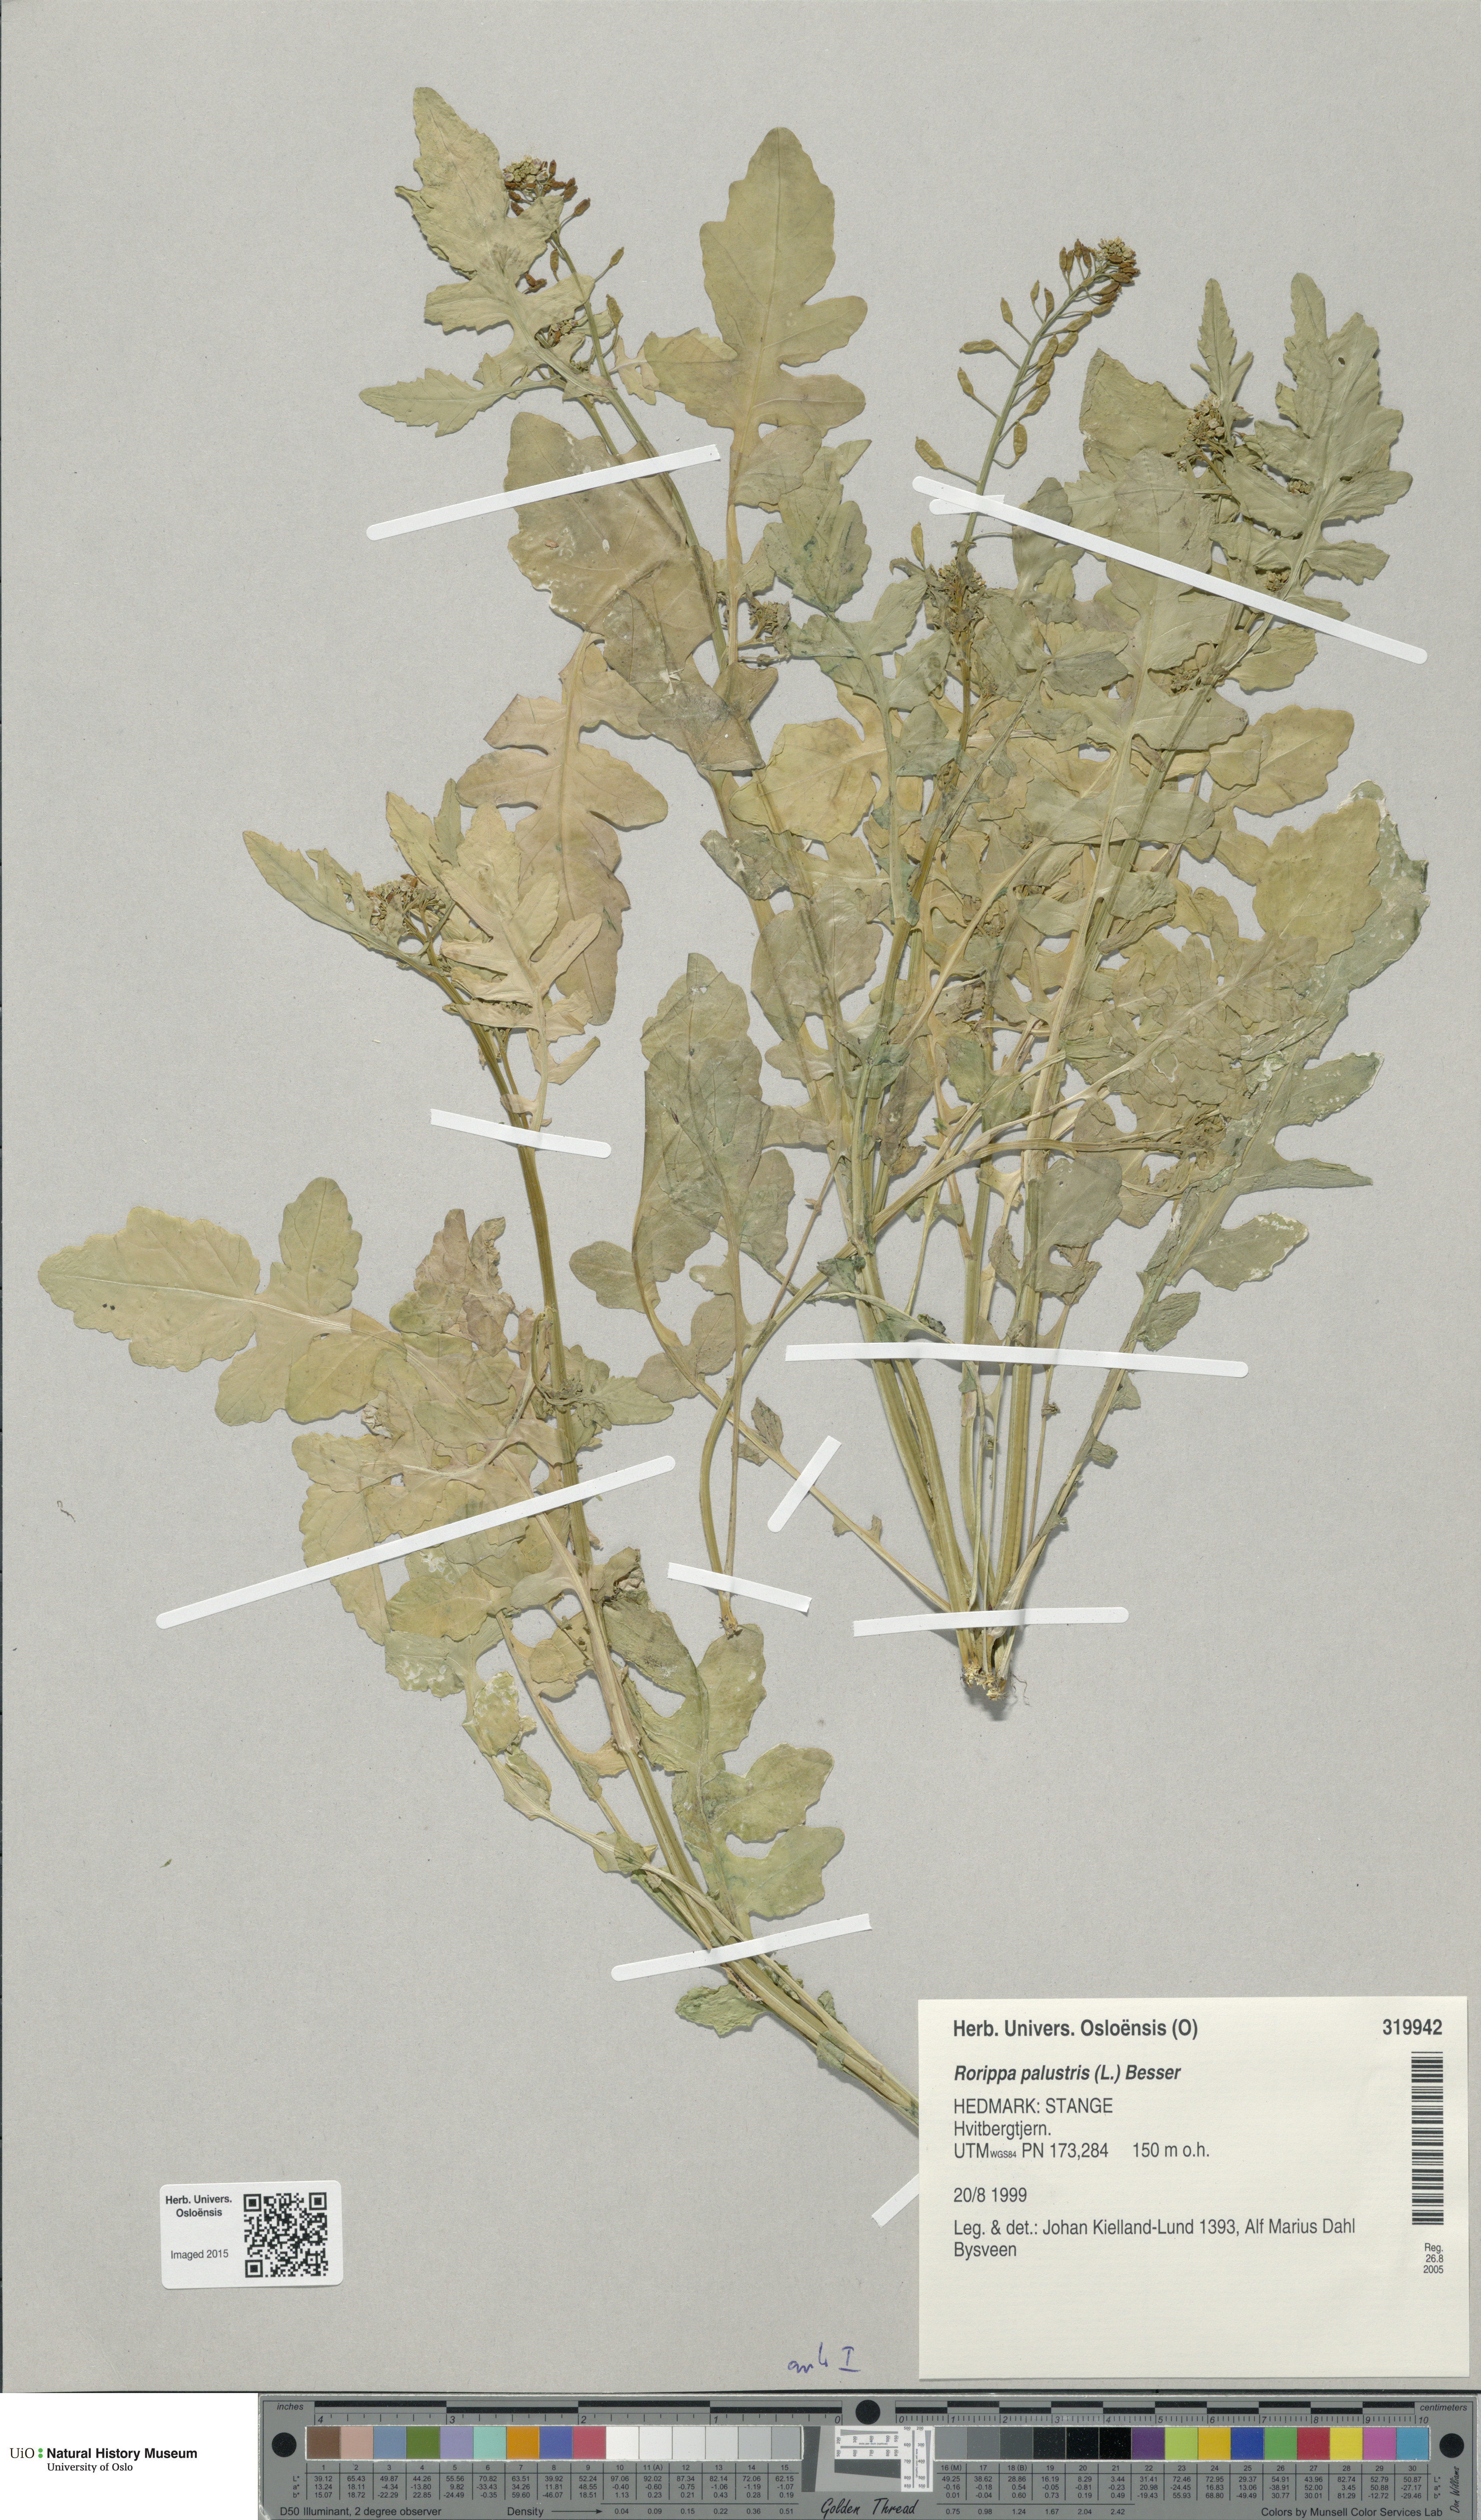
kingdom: Plantae
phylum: Tracheophyta
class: Magnoliopsida
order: Brassicales
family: Brassicaceae
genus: Rorippa
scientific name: Rorippa palustris
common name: Marsh yellow-cress
